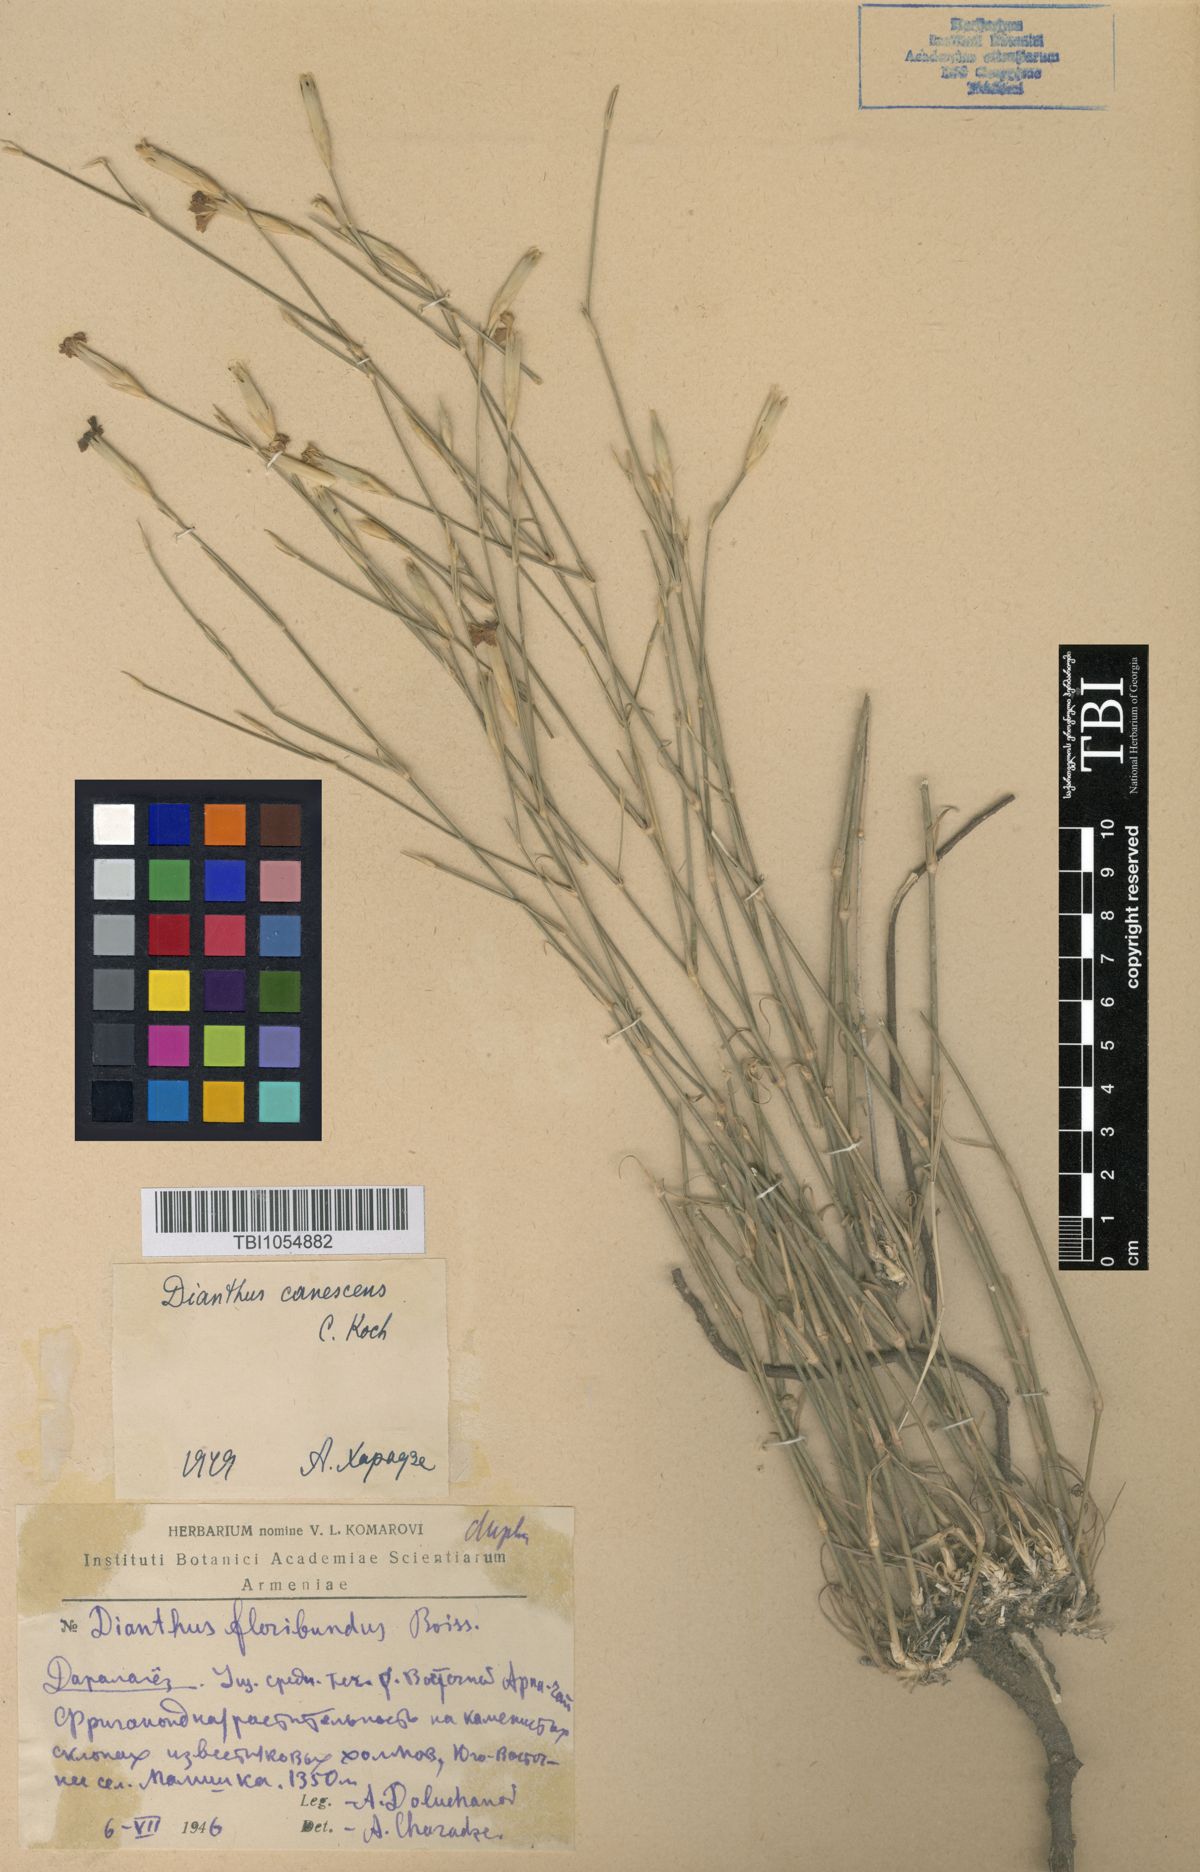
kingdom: Plantae
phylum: Tracheophyta
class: Magnoliopsida
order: Caryophyllales
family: Caryophyllaceae
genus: Dianthus
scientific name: Dianthus orientalis
